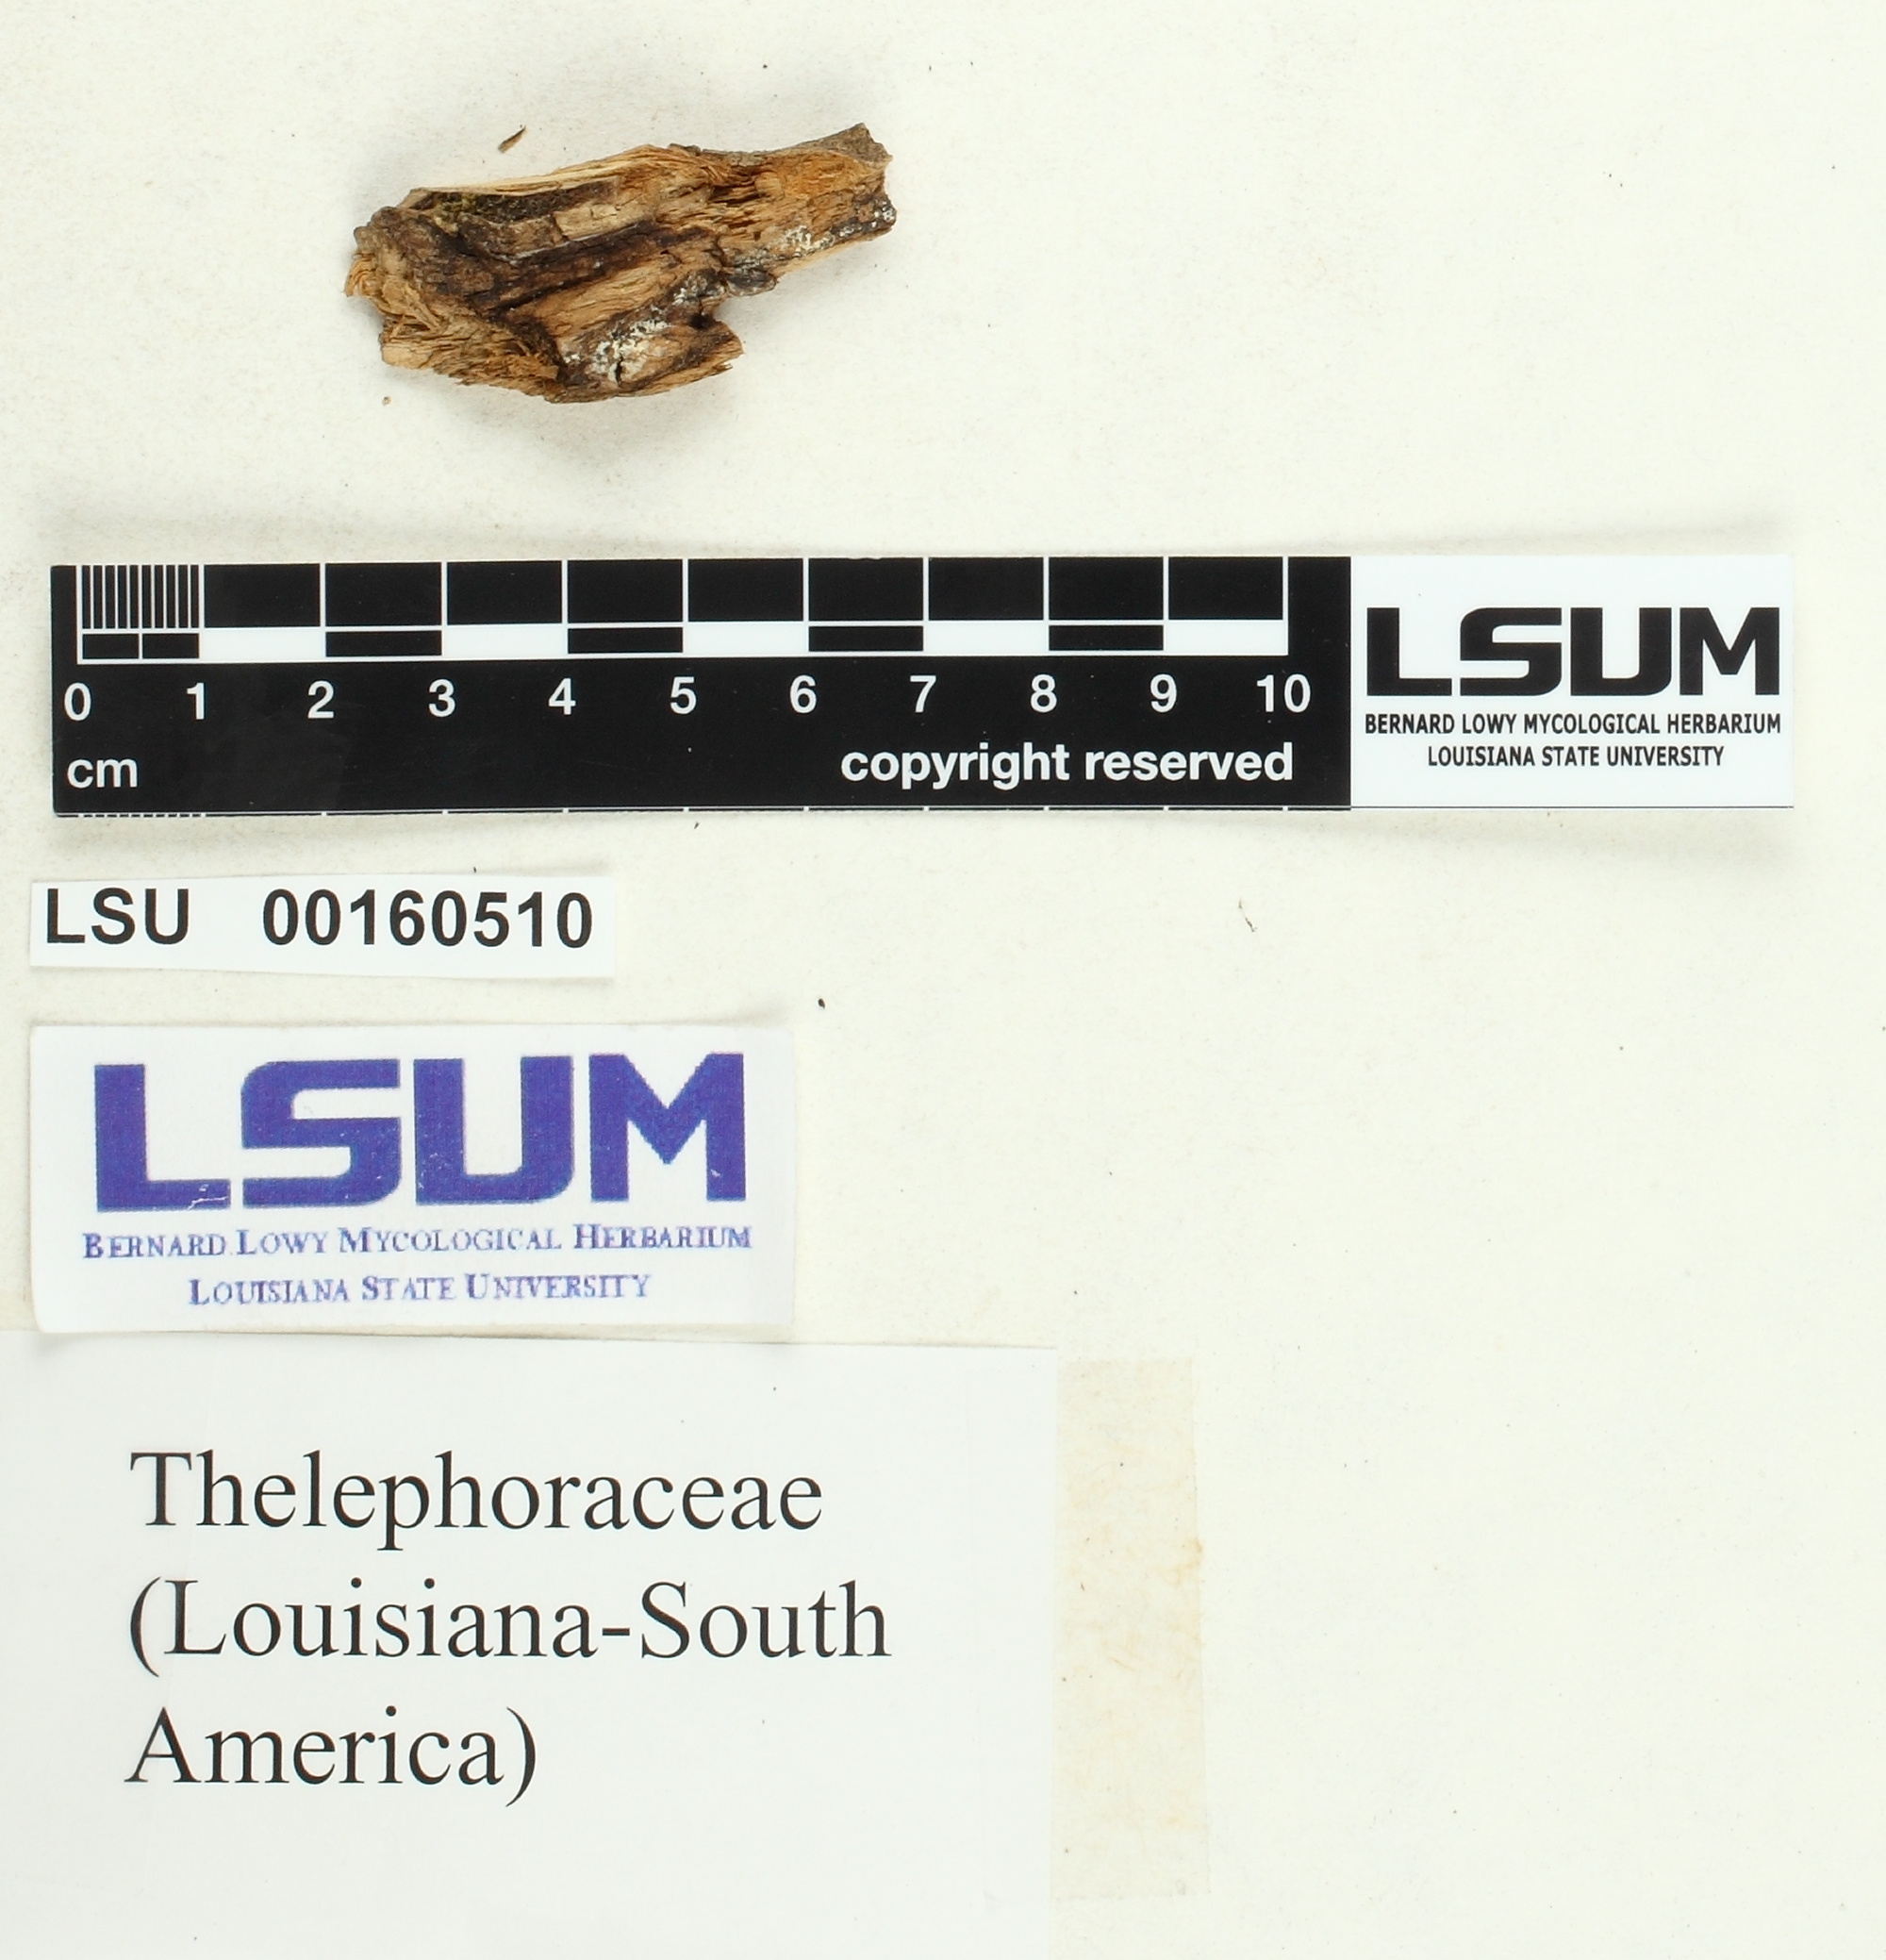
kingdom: Fungi
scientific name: Fungi
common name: Fungi
